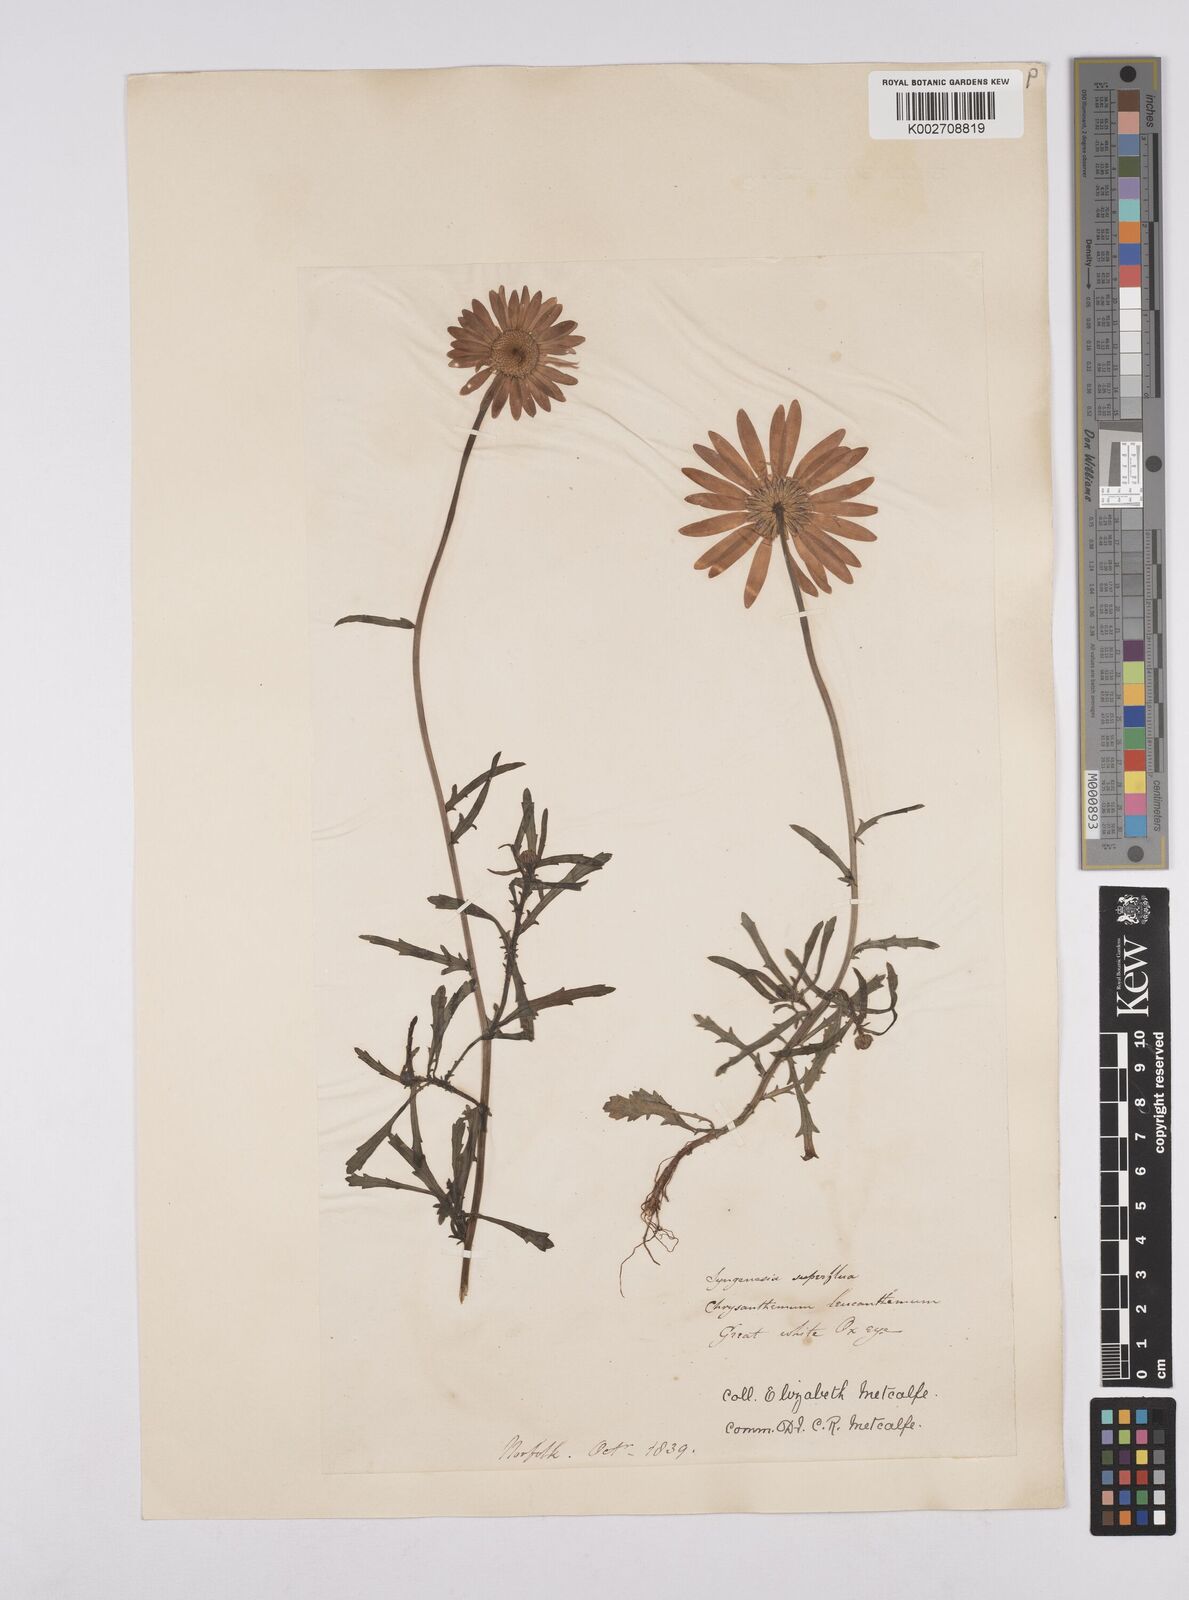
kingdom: Plantae
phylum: Tracheophyta
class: Magnoliopsida
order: Asterales
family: Asteraceae
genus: Leucanthemum
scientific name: Leucanthemum
